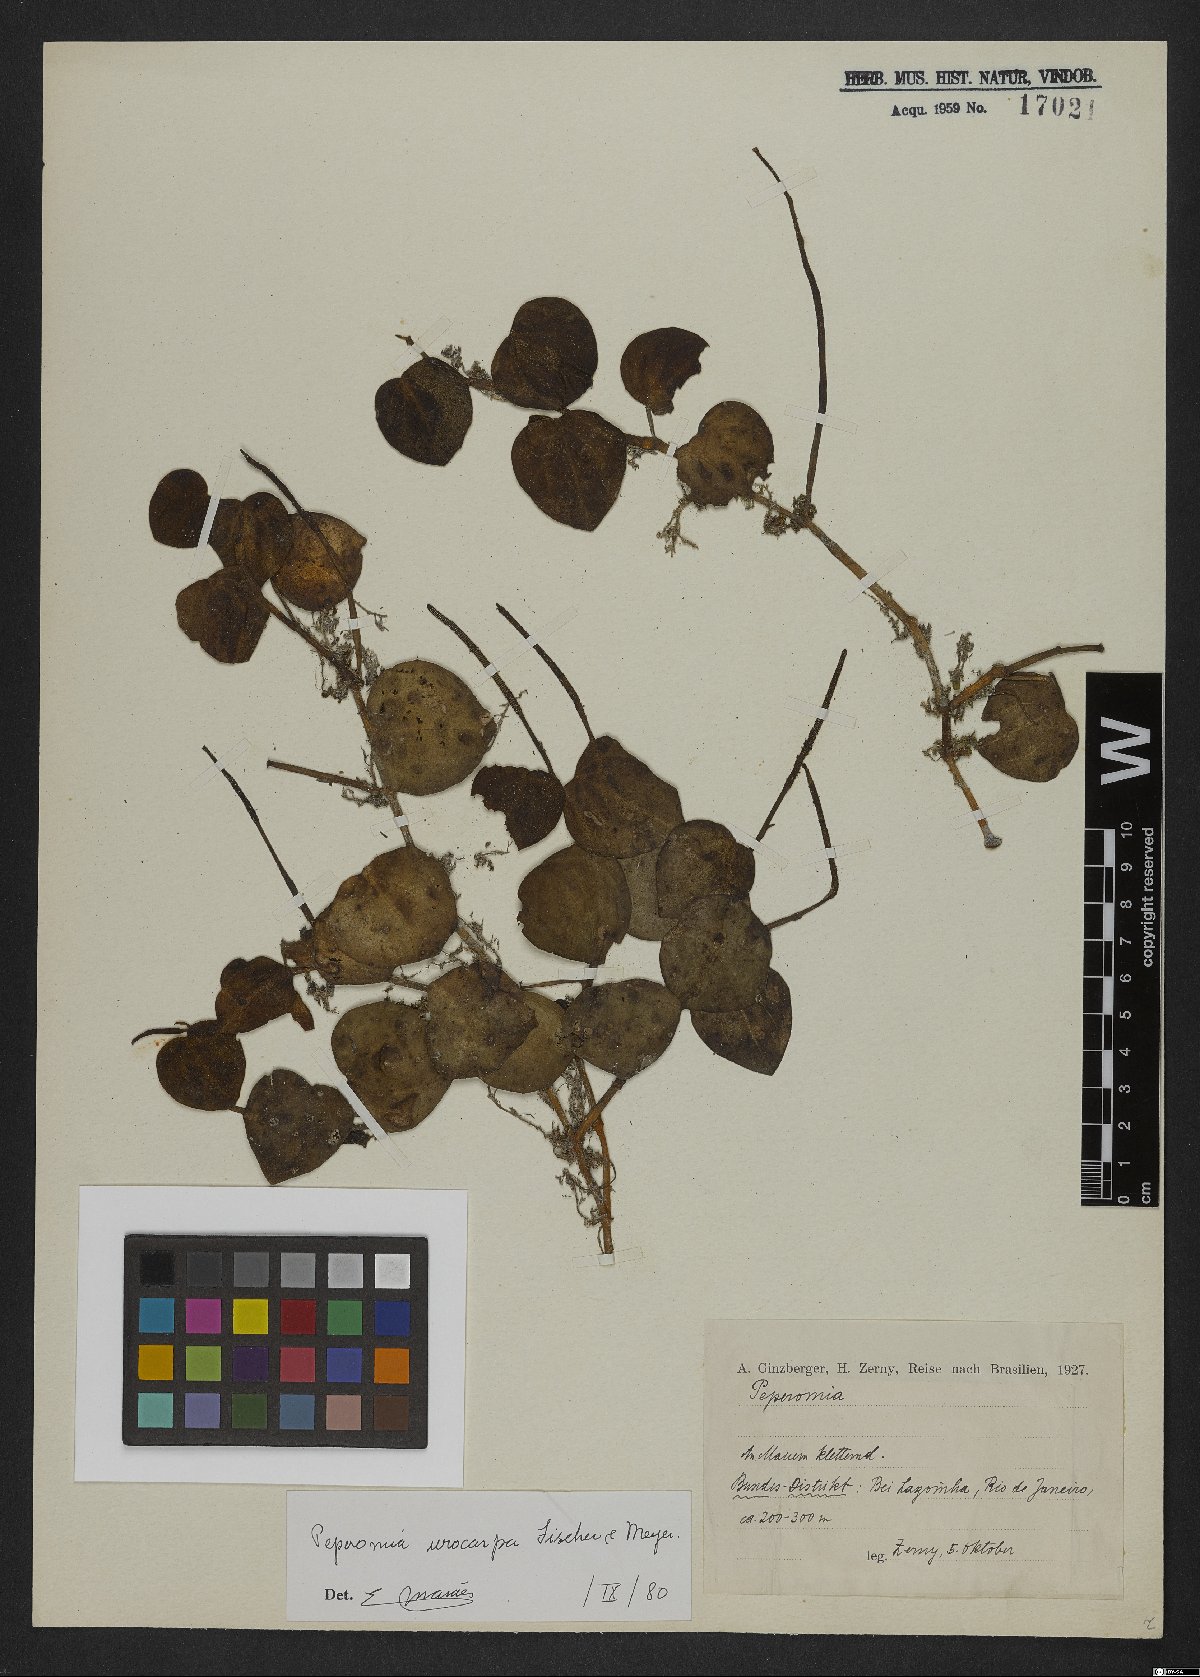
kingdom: Plantae
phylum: Tracheophyta
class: Magnoliopsida
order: Piperales
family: Piperaceae
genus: Peperomia
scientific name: Peperomia urocarpa
